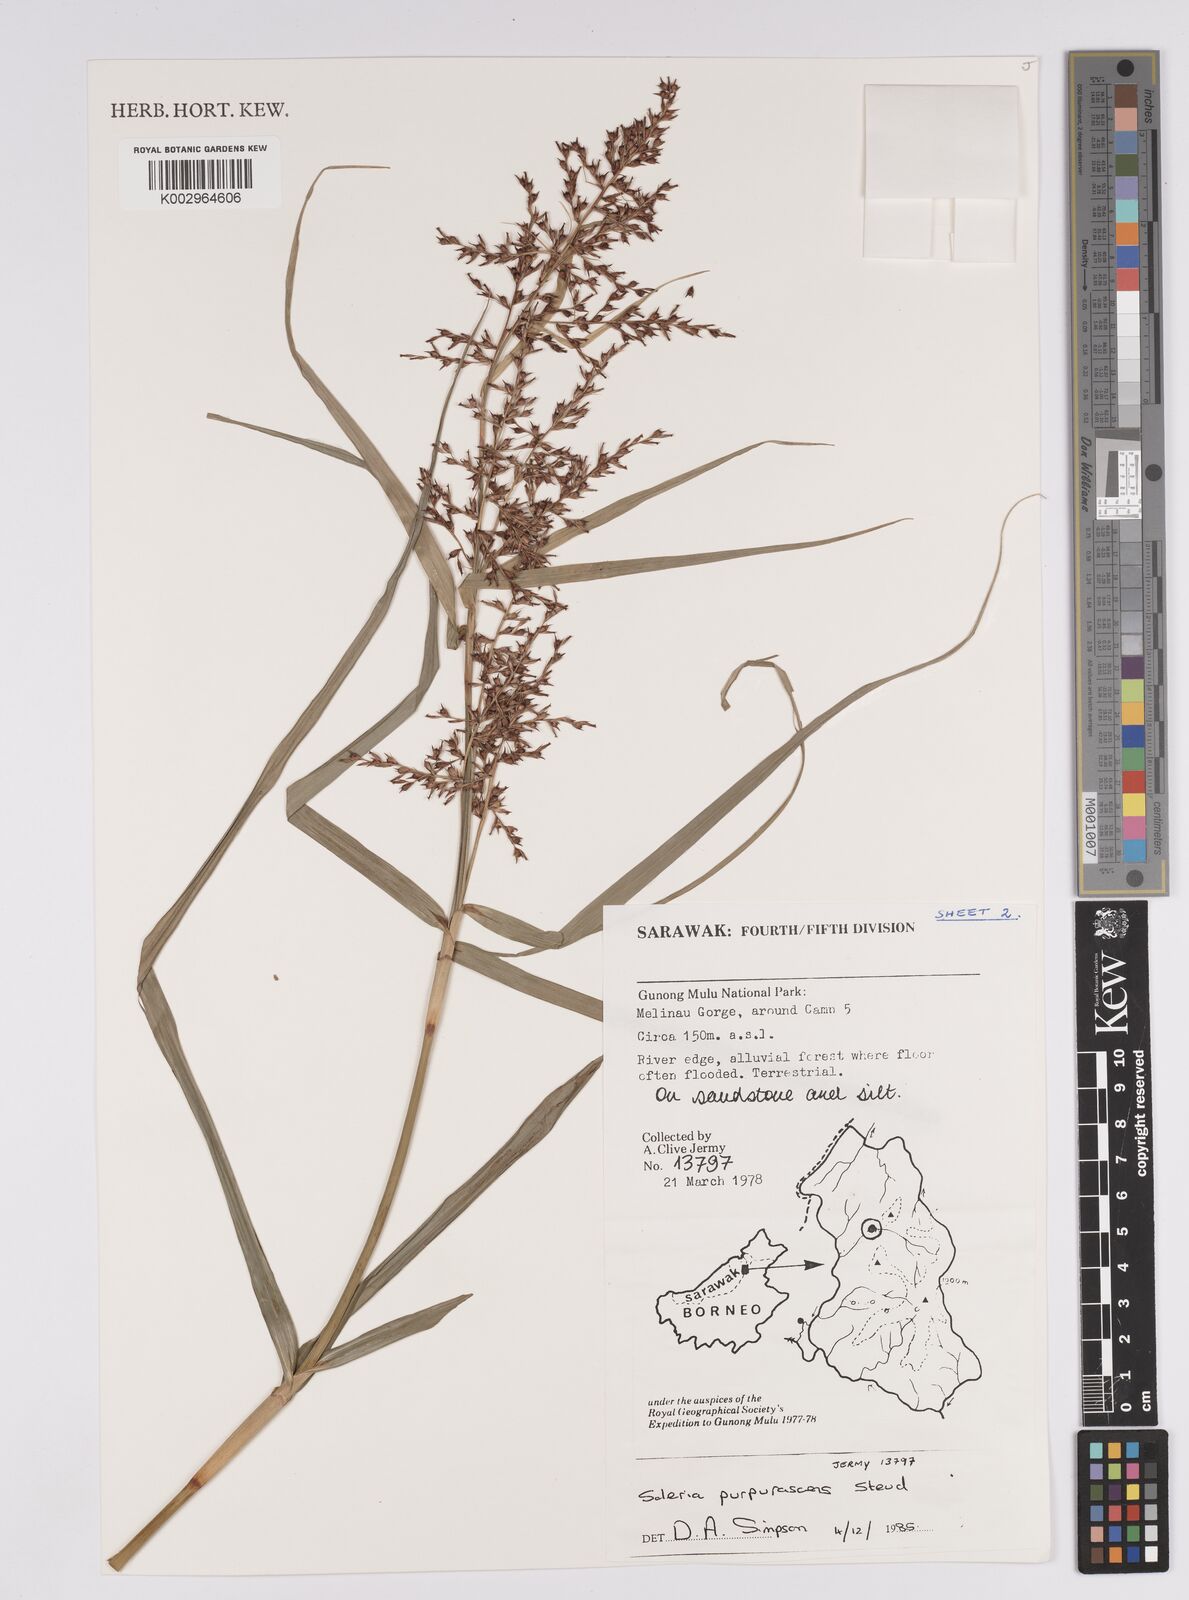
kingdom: Plantae
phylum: Tracheophyta
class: Liliopsida
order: Poales
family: Cyperaceae
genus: Scleria
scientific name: Scleria purpurascens
